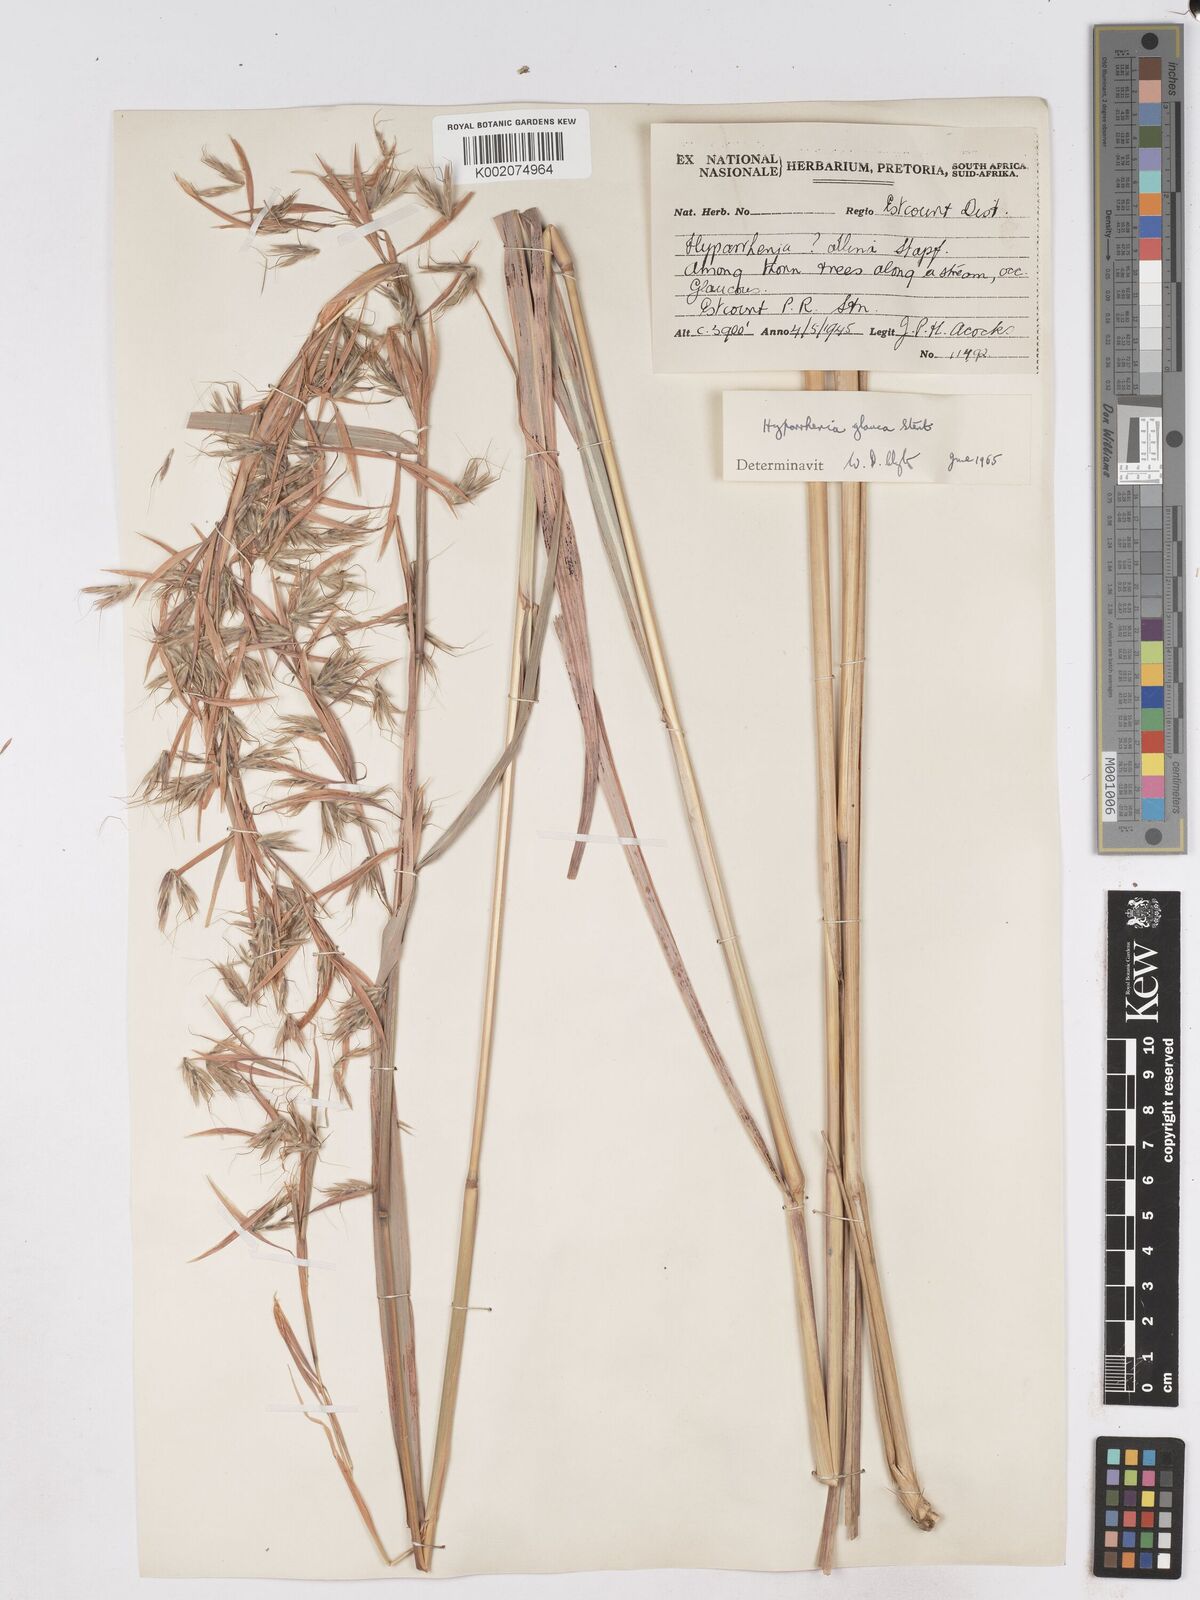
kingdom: Plantae
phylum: Tracheophyta
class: Liliopsida
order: Poales
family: Poaceae
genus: Hyparrhenia
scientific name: Hyparrhenia tamba
